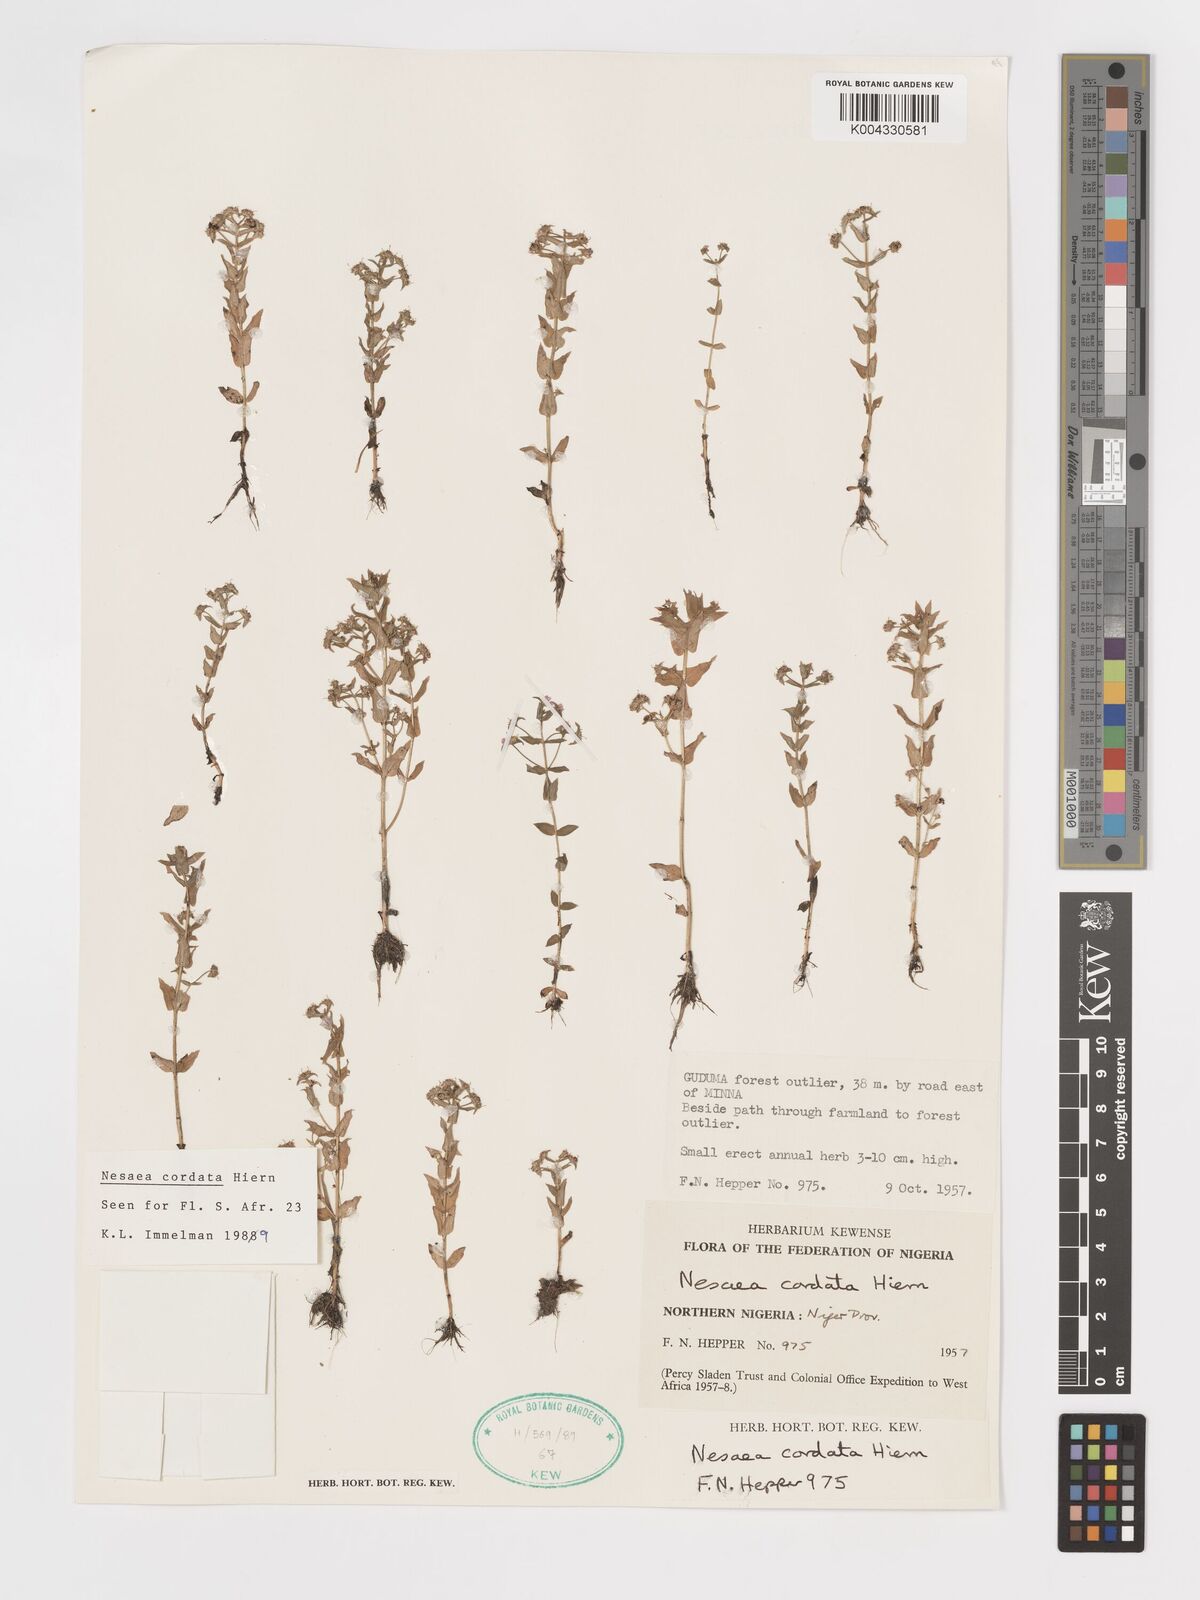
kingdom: Plantae
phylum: Tracheophyta
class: Magnoliopsida
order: Myrtales
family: Lythraceae
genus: Nesaea
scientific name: Nesaea
